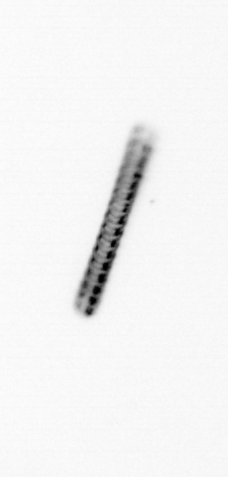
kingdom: Chromista
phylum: Ochrophyta
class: Bacillariophyceae
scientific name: Bacillariophyceae
